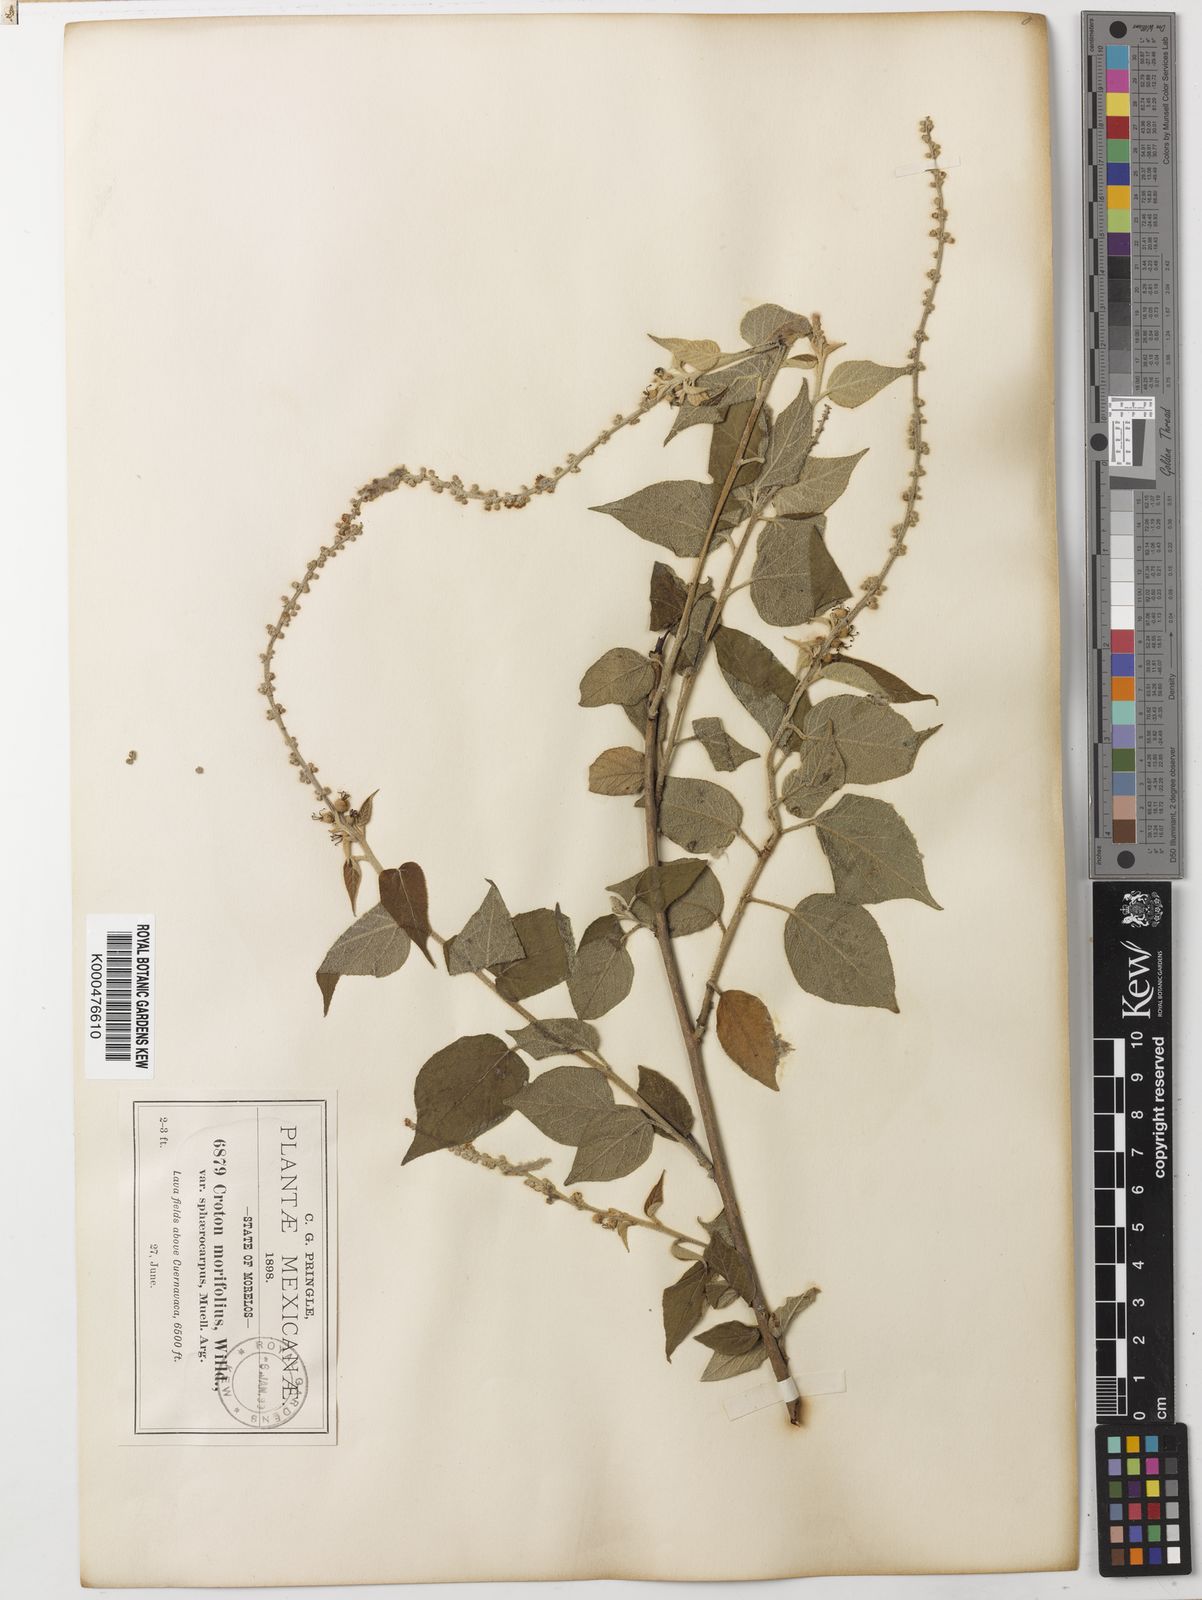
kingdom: Plantae
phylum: Tracheophyta
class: Magnoliopsida
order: Malpighiales
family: Euphorbiaceae
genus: Croton
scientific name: Croton morifolius
